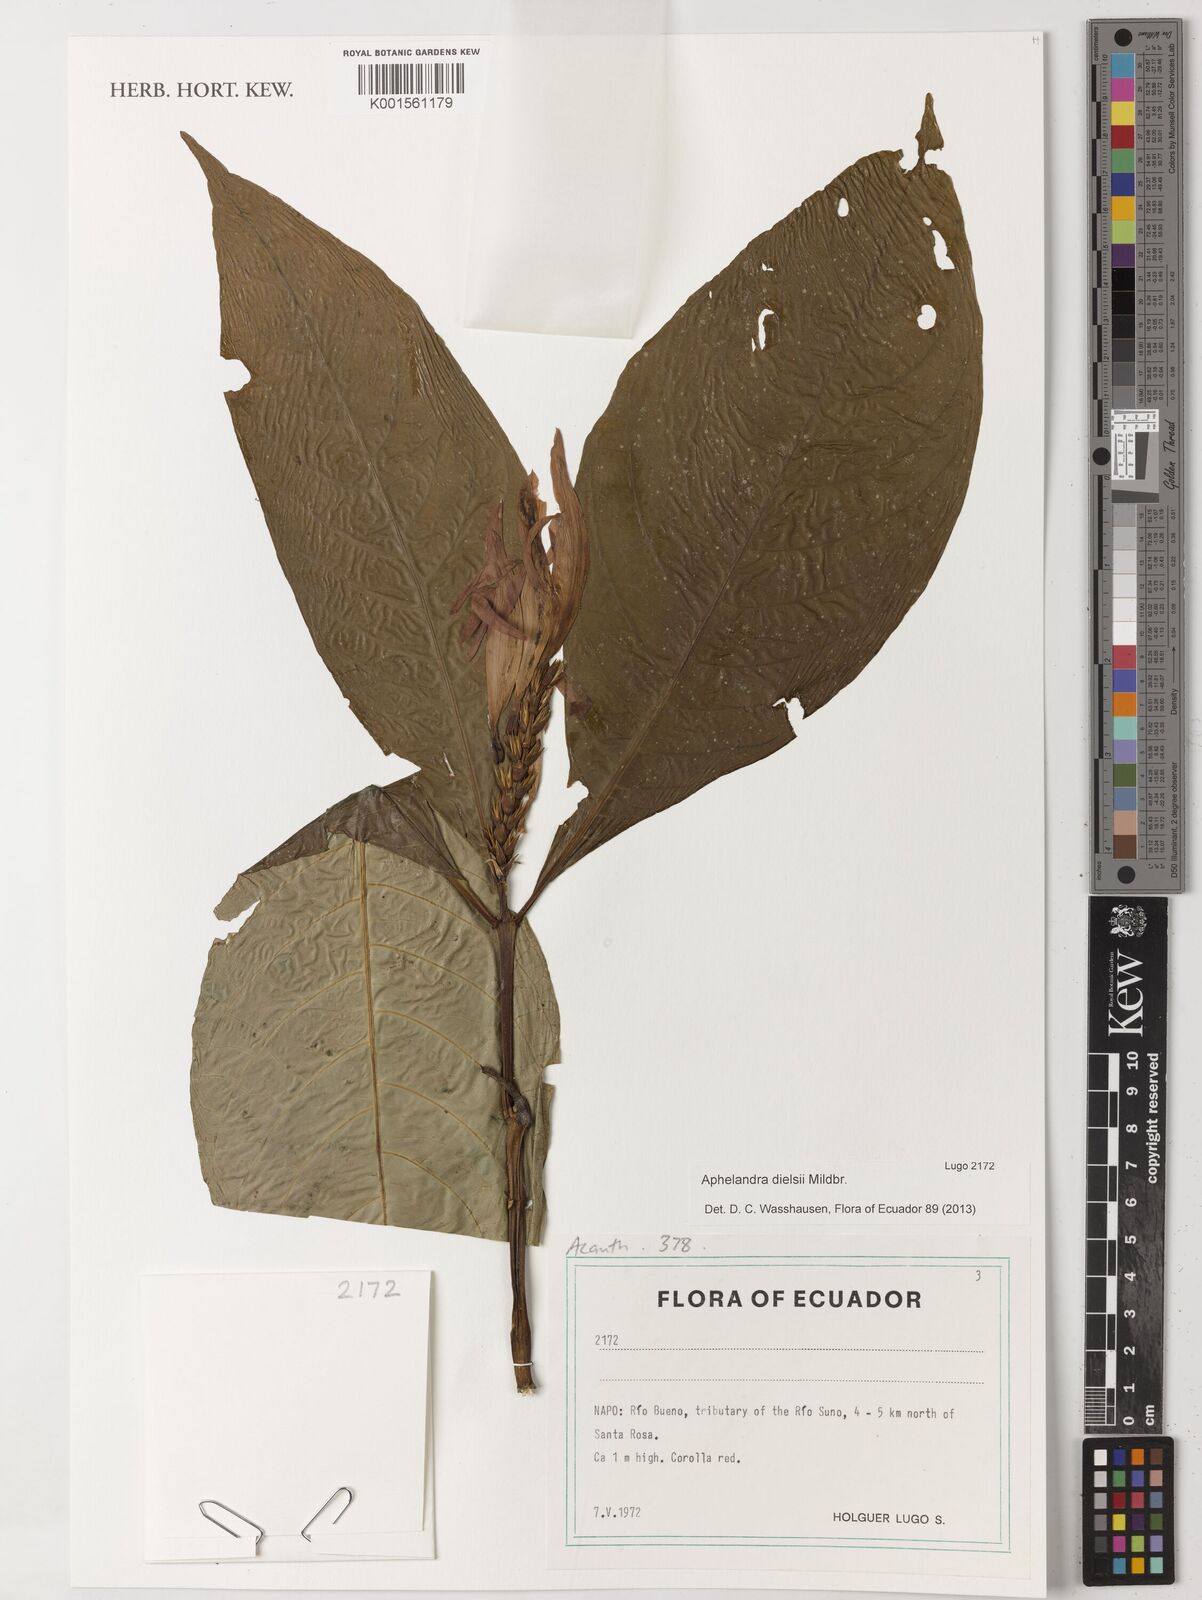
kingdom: Plantae
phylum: Tracheophyta
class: Magnoliopsida
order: Lamiales
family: Acanthaceae
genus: Aphelandra
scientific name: Aphelandra dielsii
